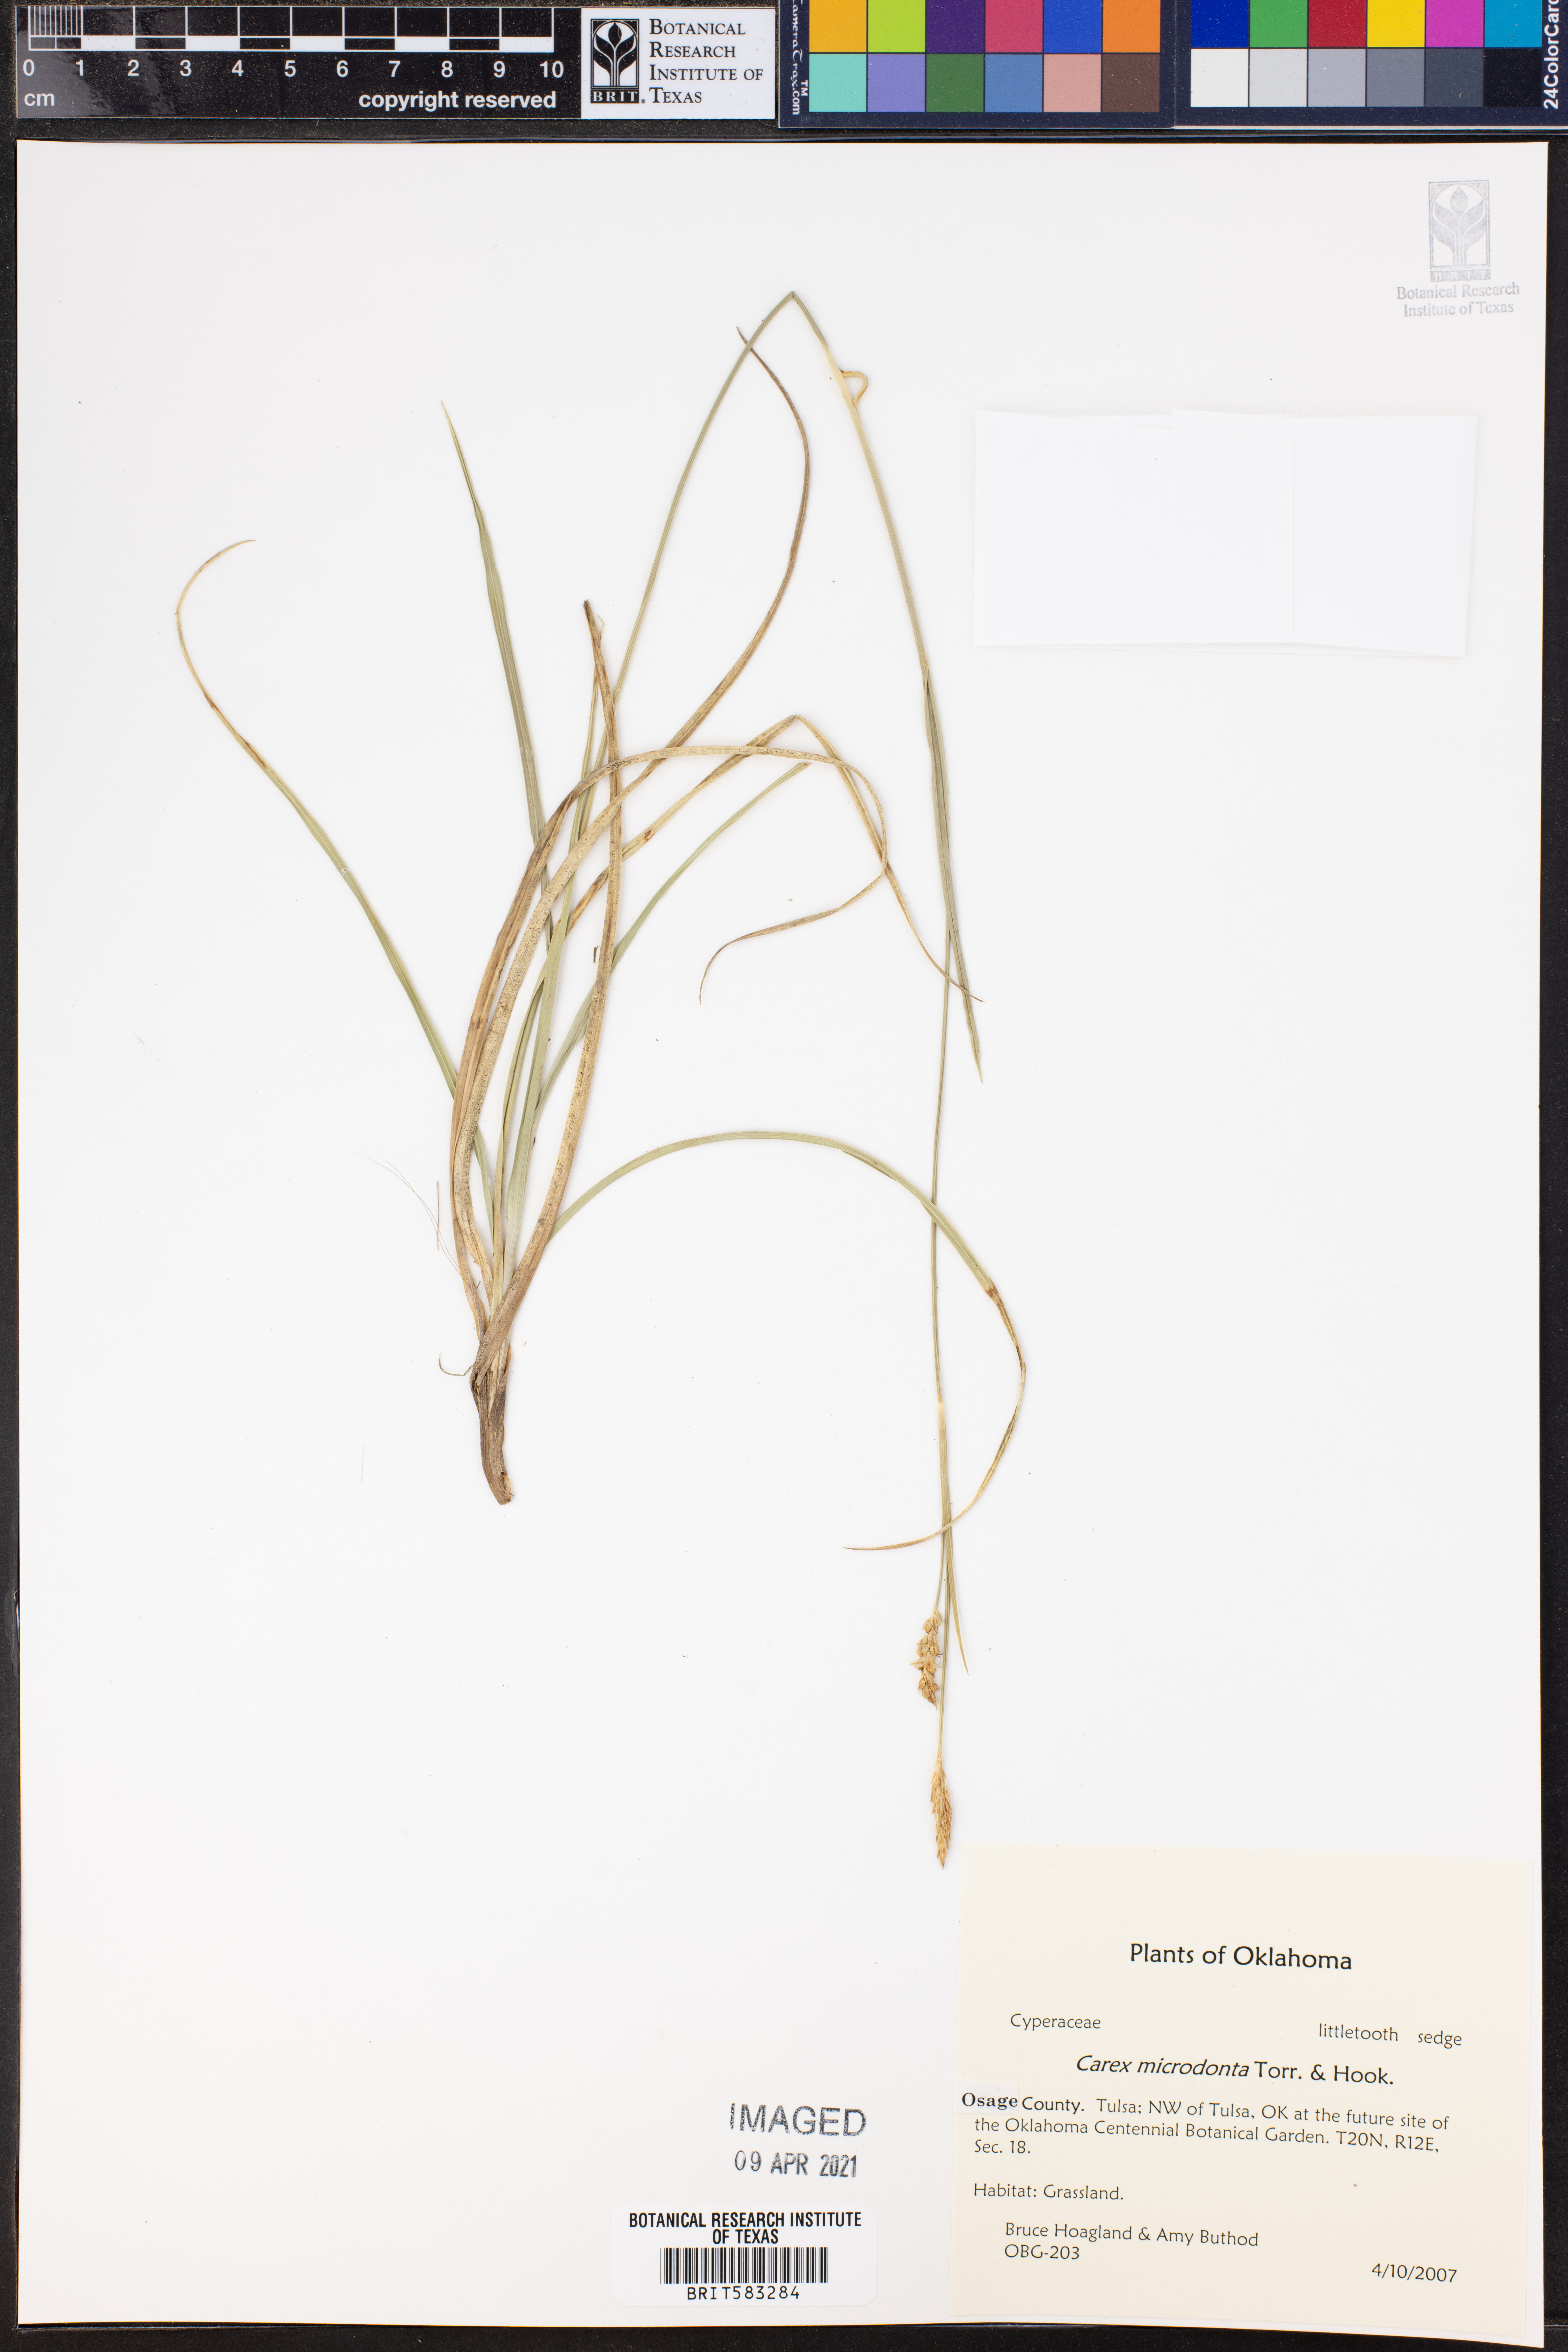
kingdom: Plantae
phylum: Tracheophyta
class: Liliopsida
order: Poales
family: Cyperaceae
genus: Carex
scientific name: Carex microdonta
